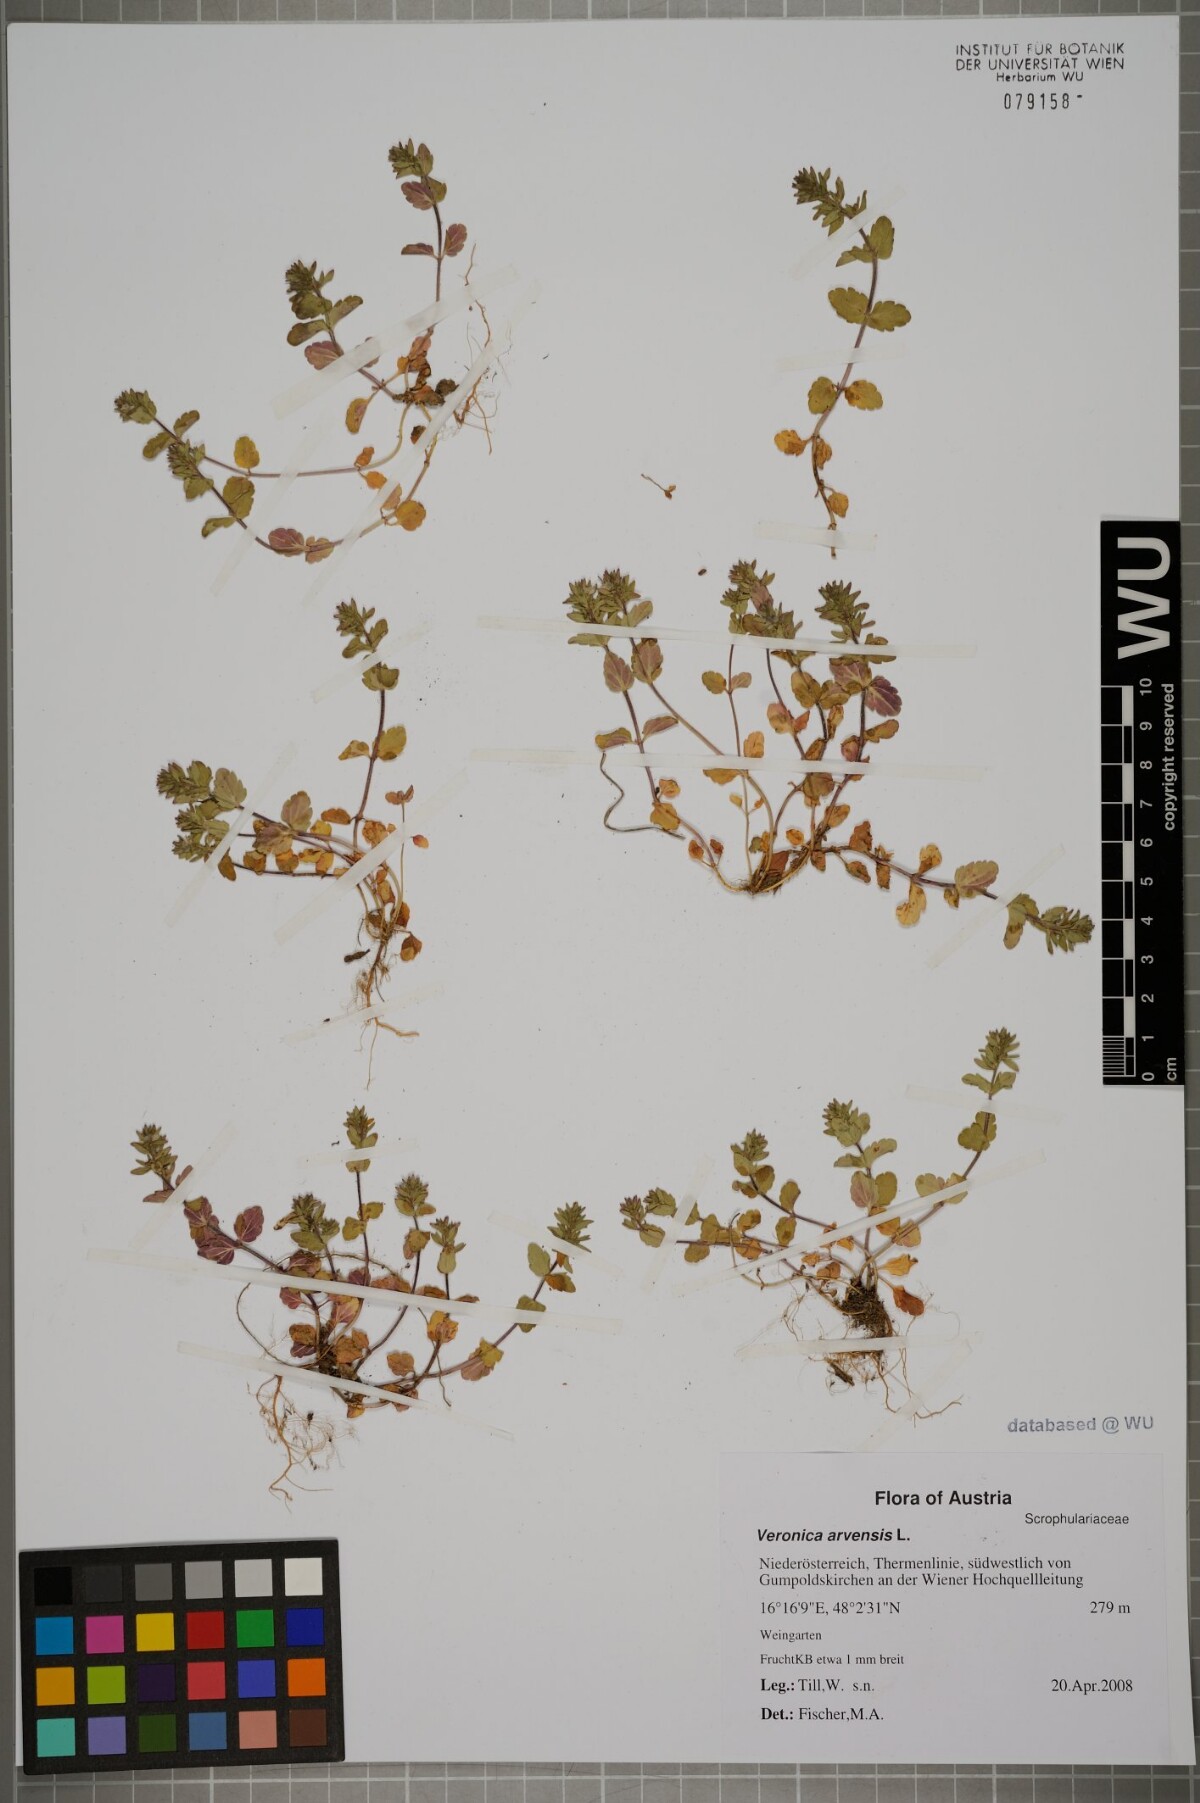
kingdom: Plantae
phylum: Tracheophyta
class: Magnoliopsida
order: Lamiales
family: Plantaginaceae
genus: Veronica
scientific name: Veronica arvensis
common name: Corn speedwell
